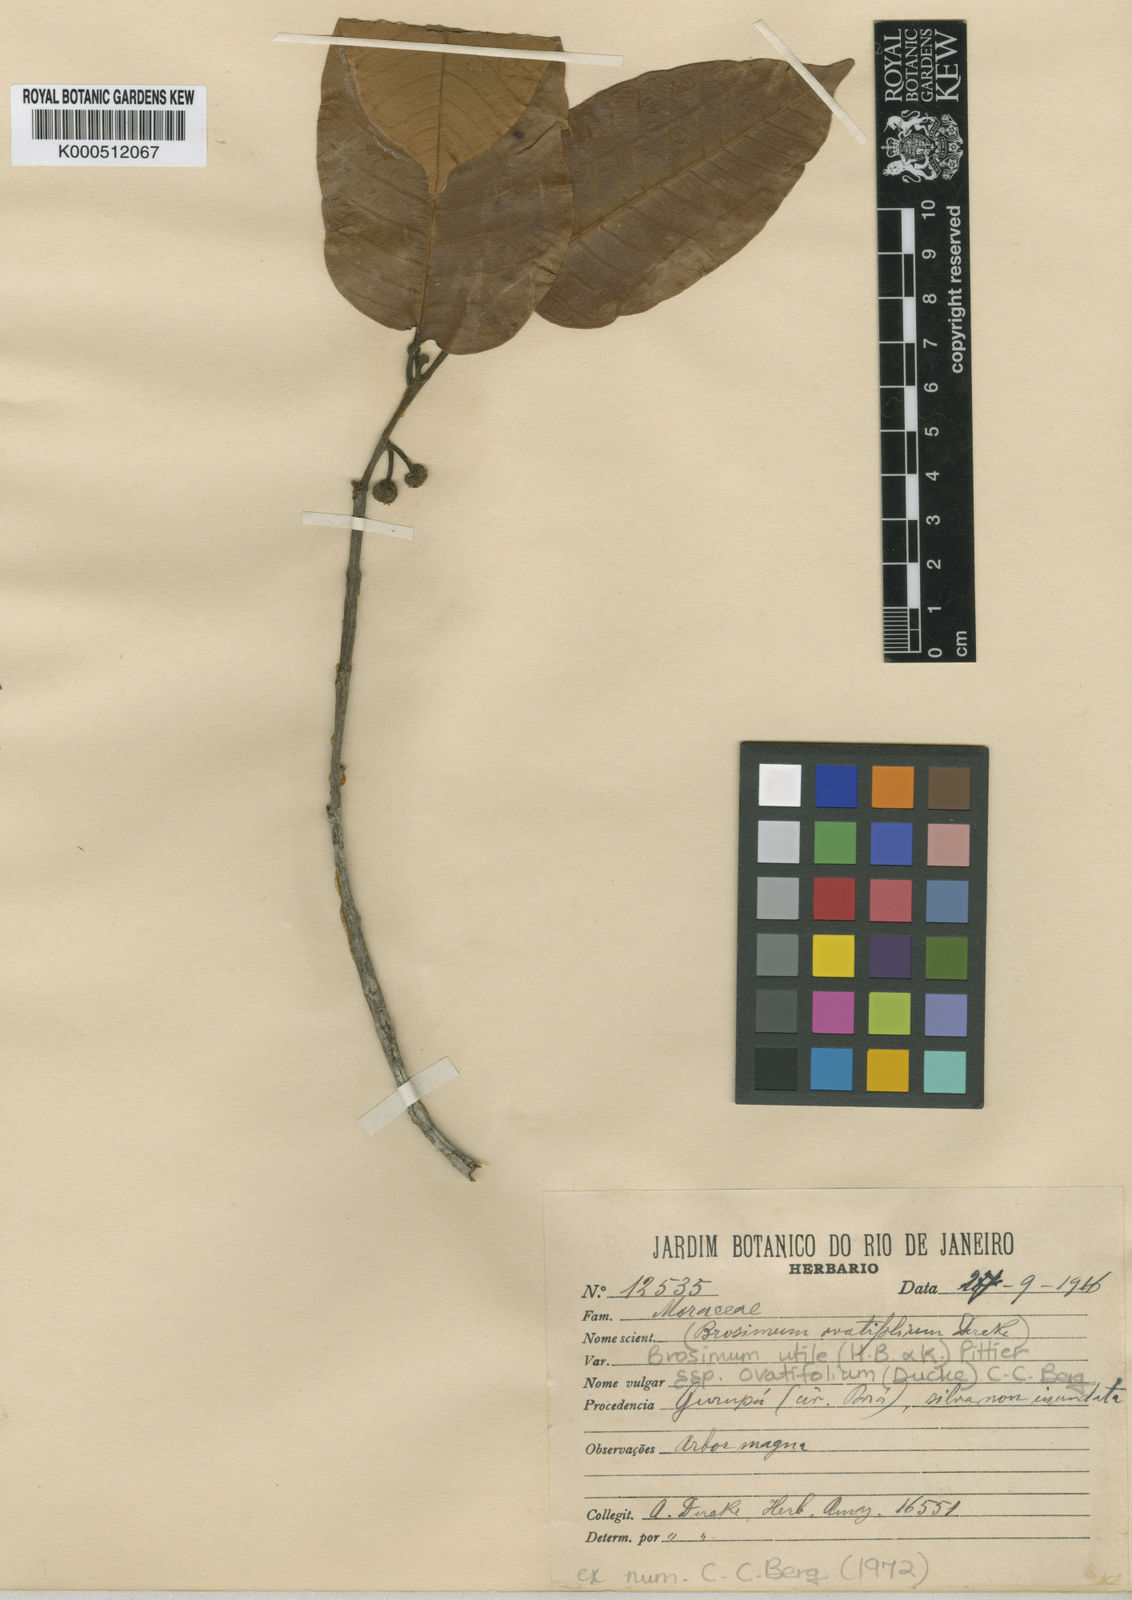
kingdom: Plantae
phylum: Tracheophyta
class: Magnoliopsida
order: Rosales
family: Moraceae
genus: Brosimum
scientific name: Brosimum utile
